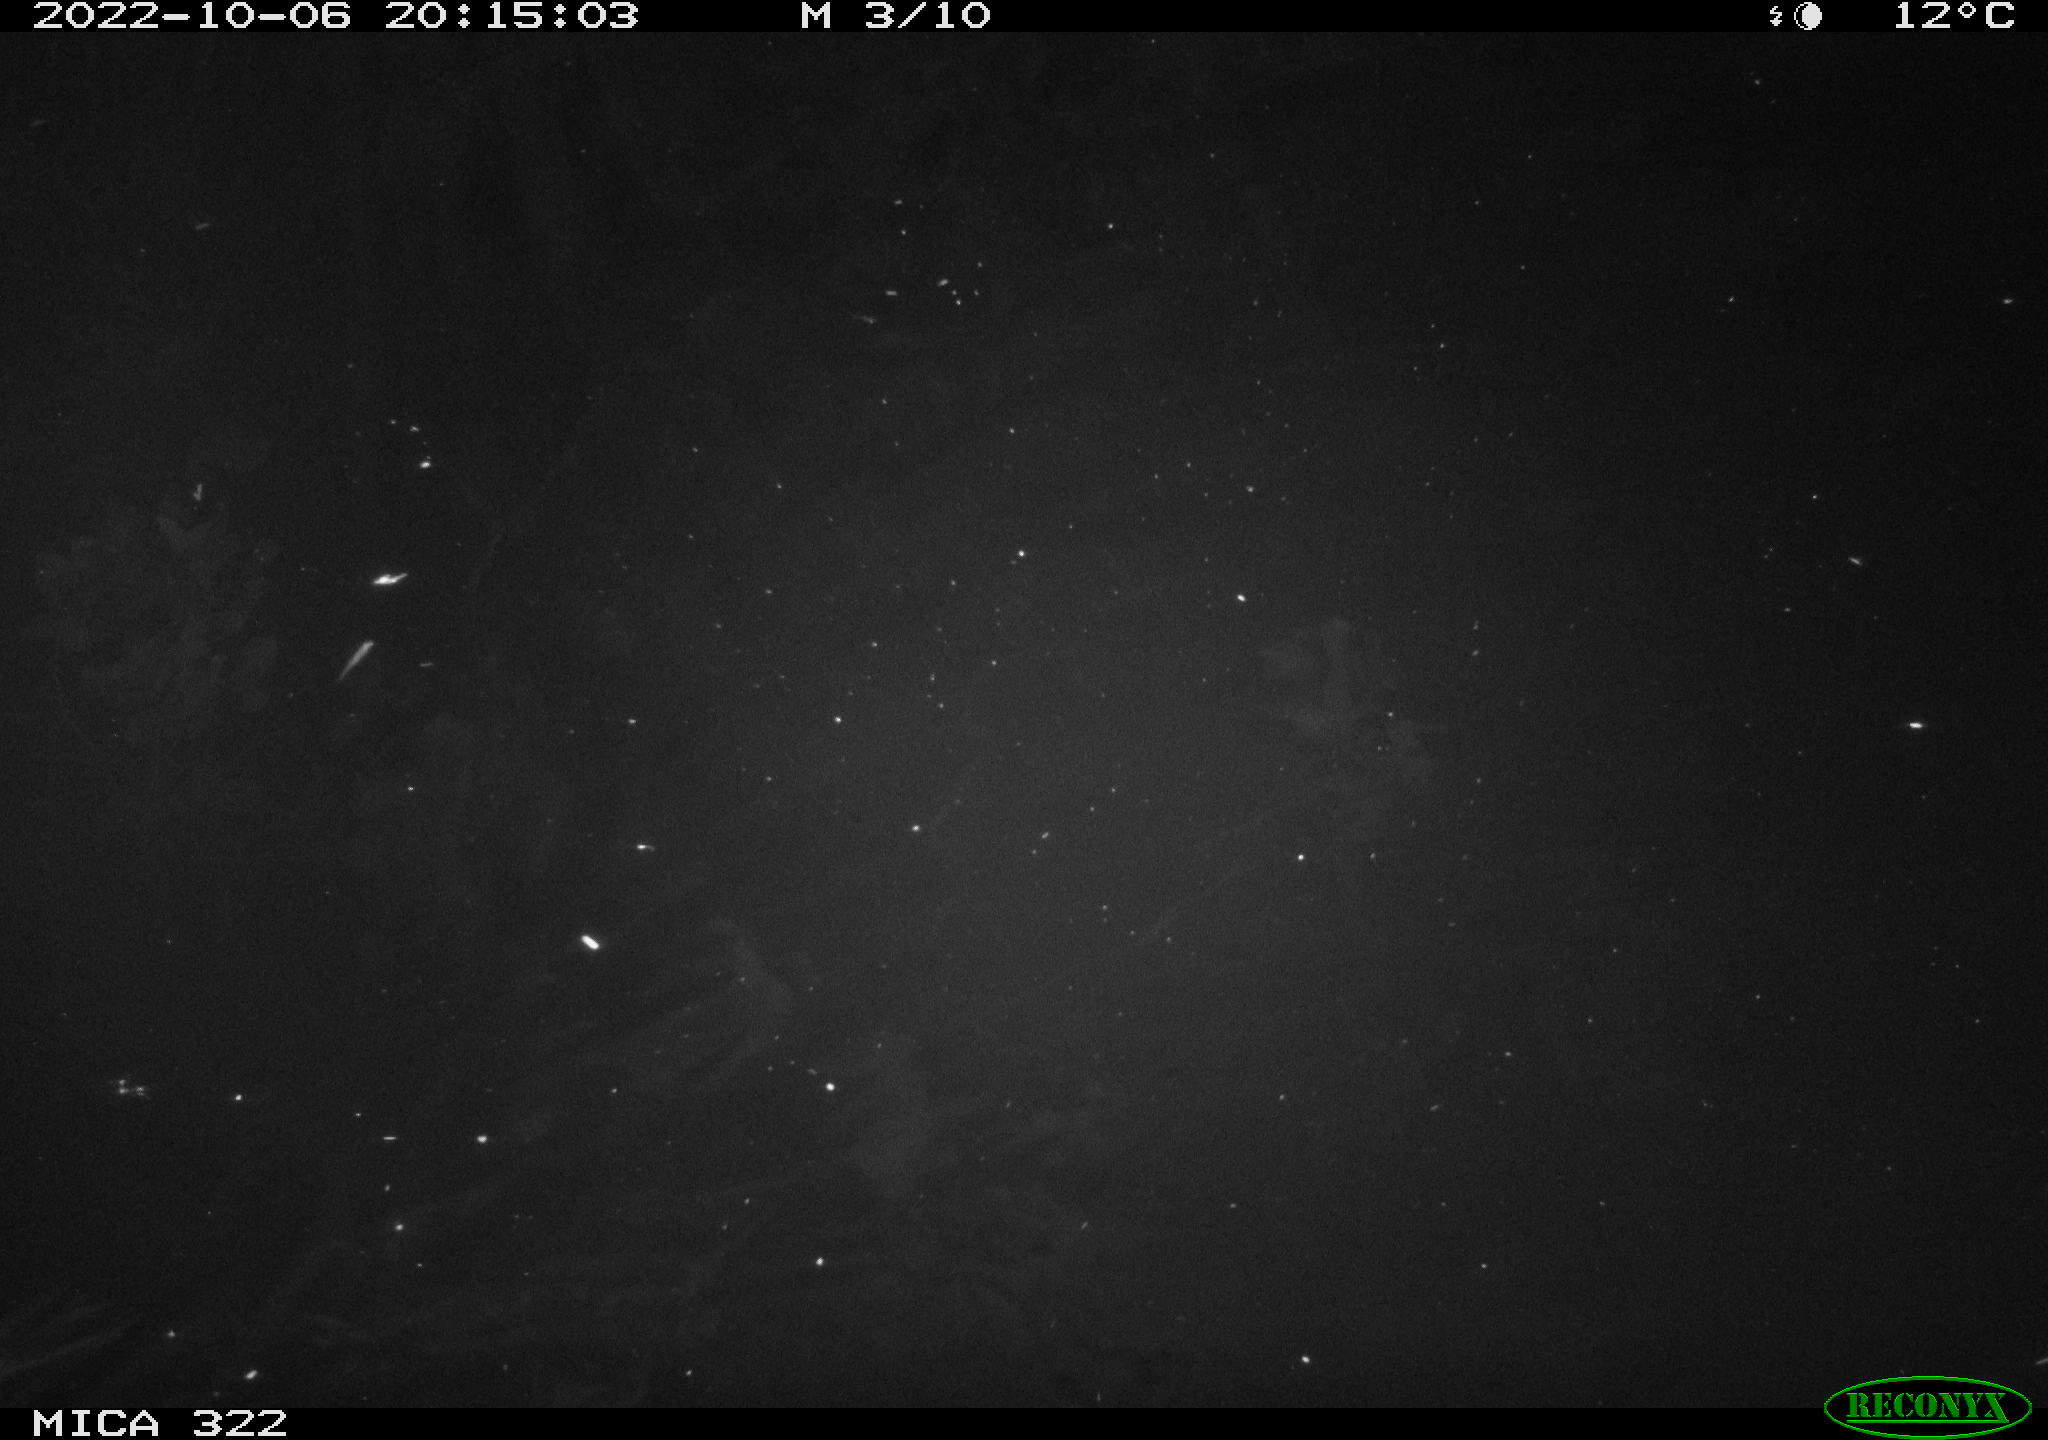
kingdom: Animalia
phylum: Chordata
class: Mammalia
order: Rodentia
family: Muridae
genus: Rattus
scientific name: Rattus norvegicus
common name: Brown rat
